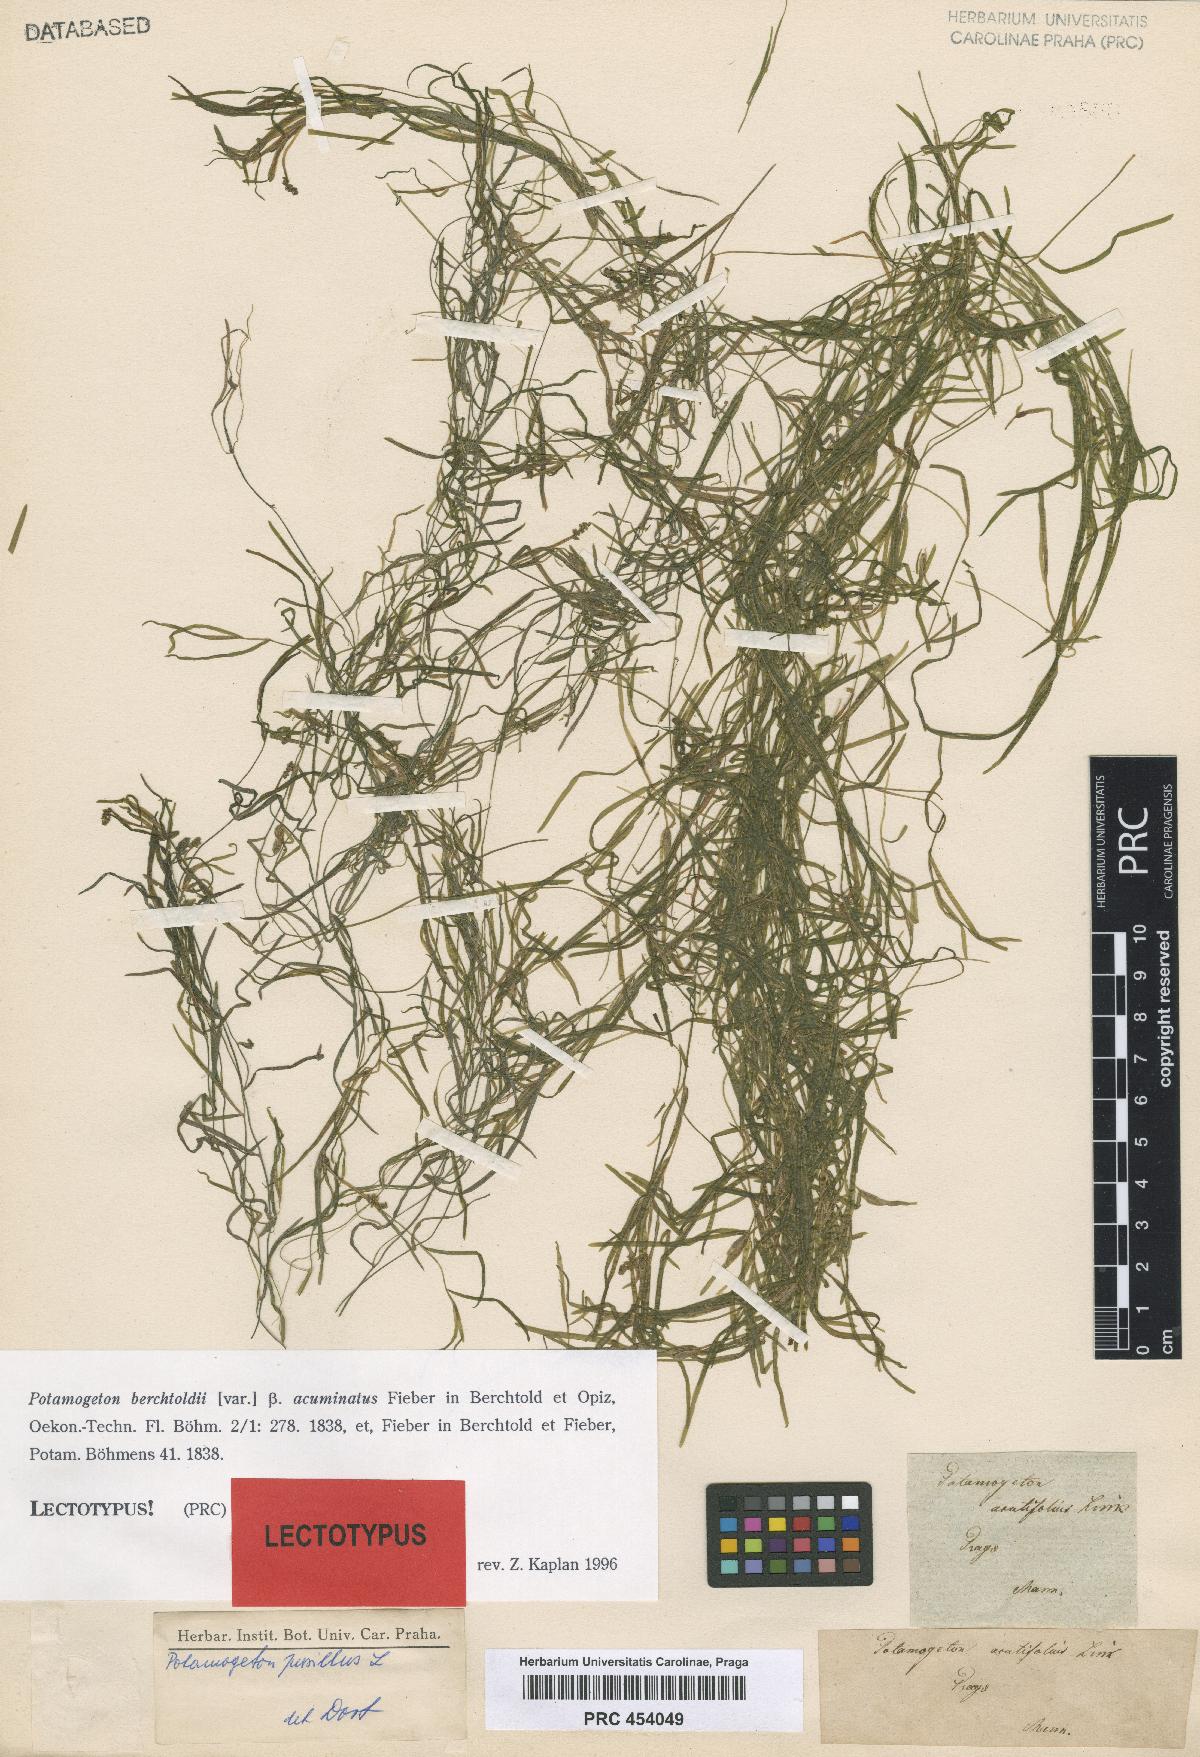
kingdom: Plantae
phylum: Tracheophyta
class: Liliopsida
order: Alismatales
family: Potamogetonaceae
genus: Potamogeton
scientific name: Potamogeton berchtoldii
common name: Small pondweed
